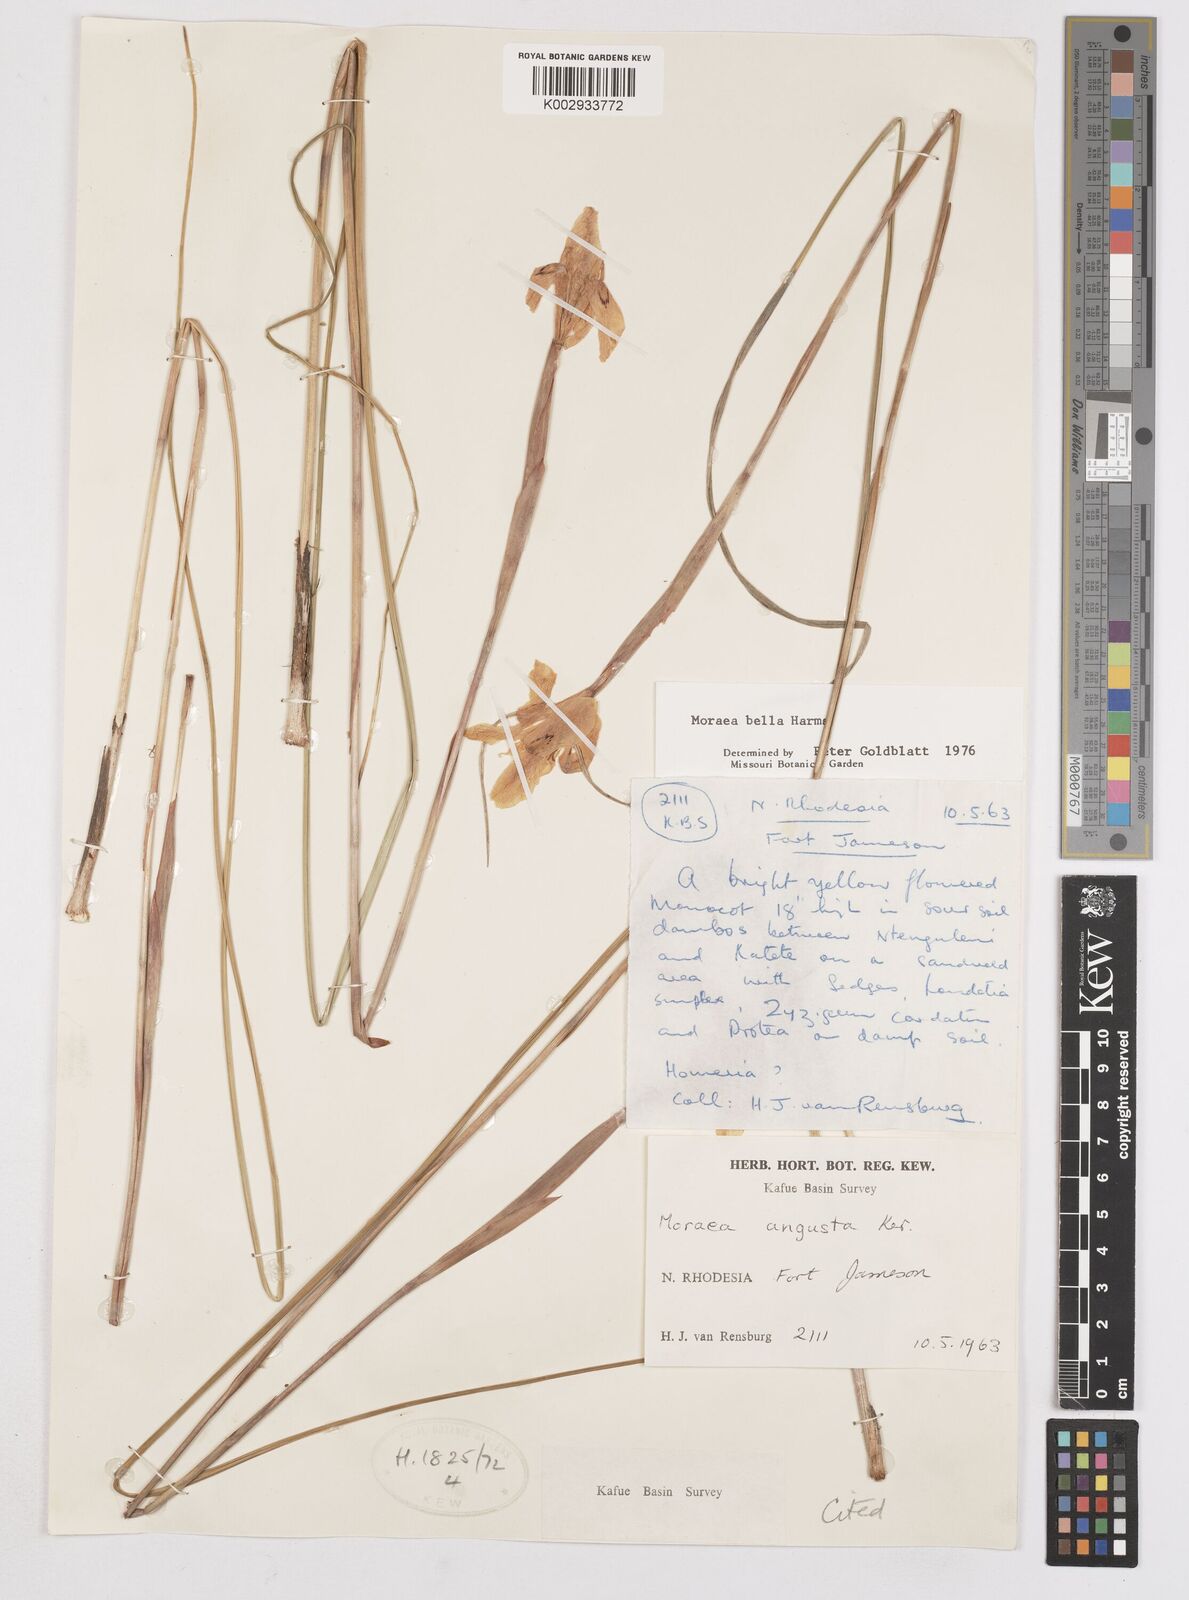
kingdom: Plantae
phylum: Tracheophyta
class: Liliopsida
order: Asparagales
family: Iridaceae
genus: Moraea
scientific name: Moraea bella
